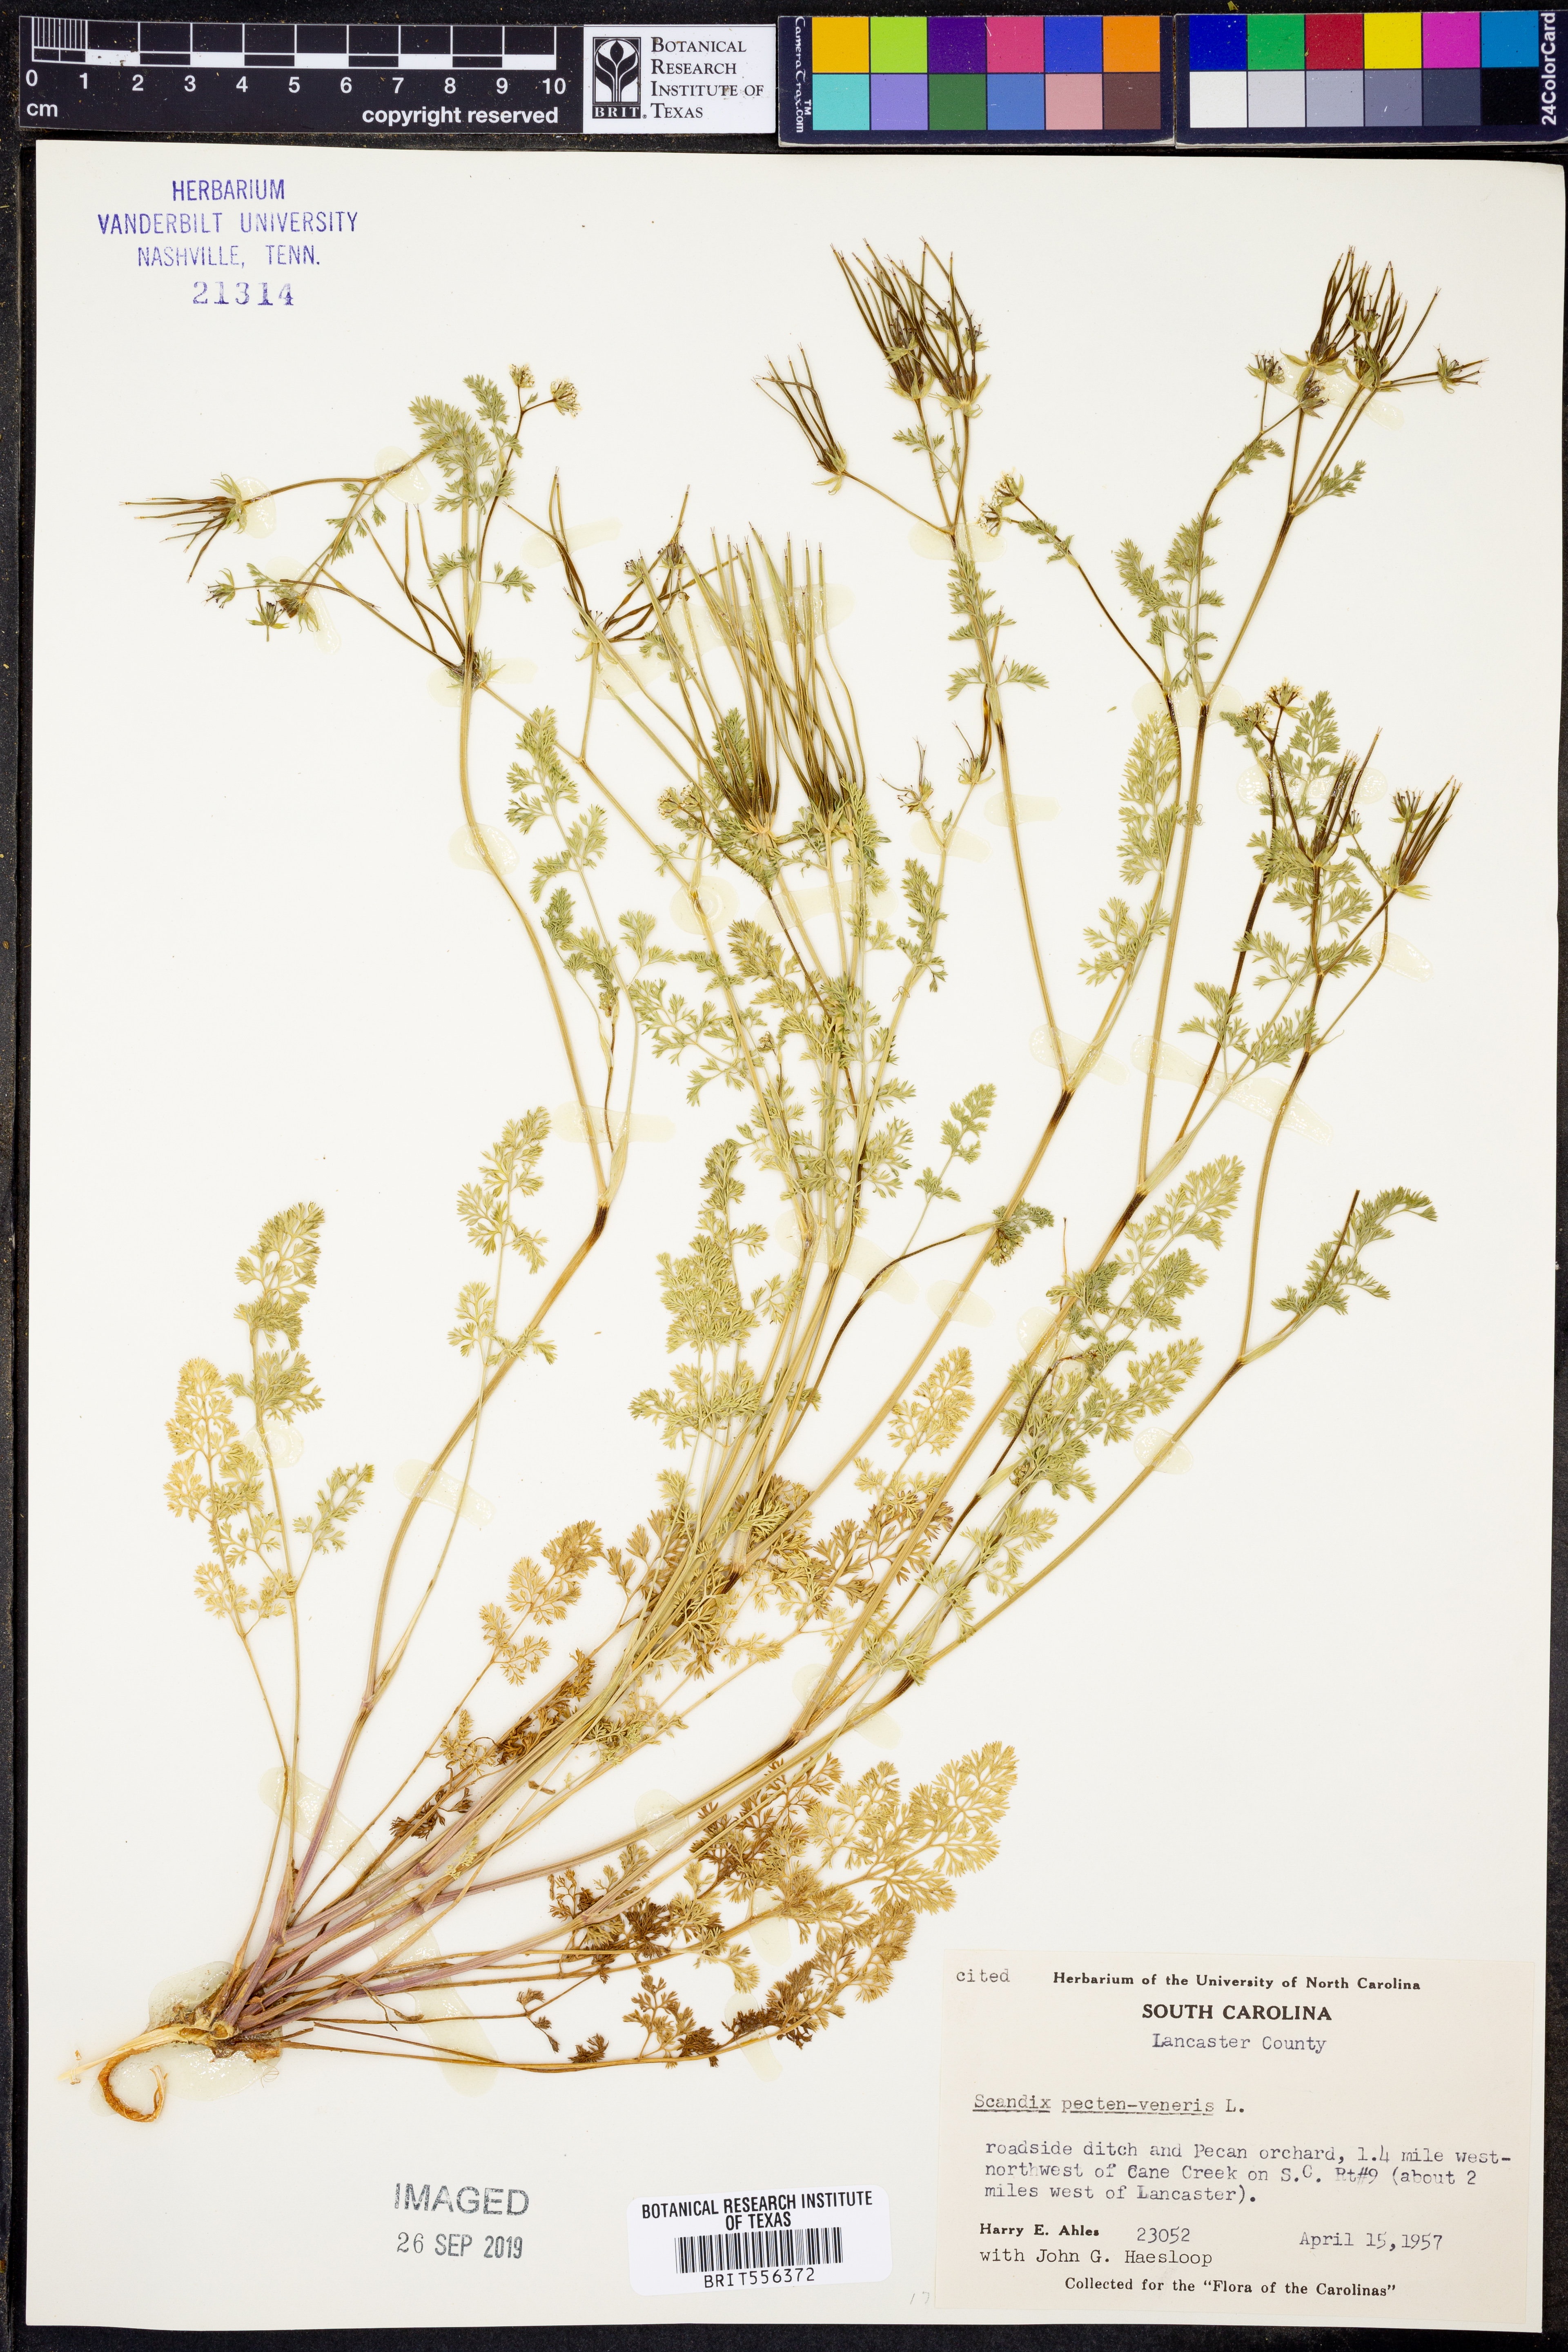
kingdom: Plantae
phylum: Tracheophyta
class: Magnoliopsida
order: Apiales
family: Apiaceae
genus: Scandix
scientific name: Scandix pecten-veneris
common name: Shepherd's-needle
